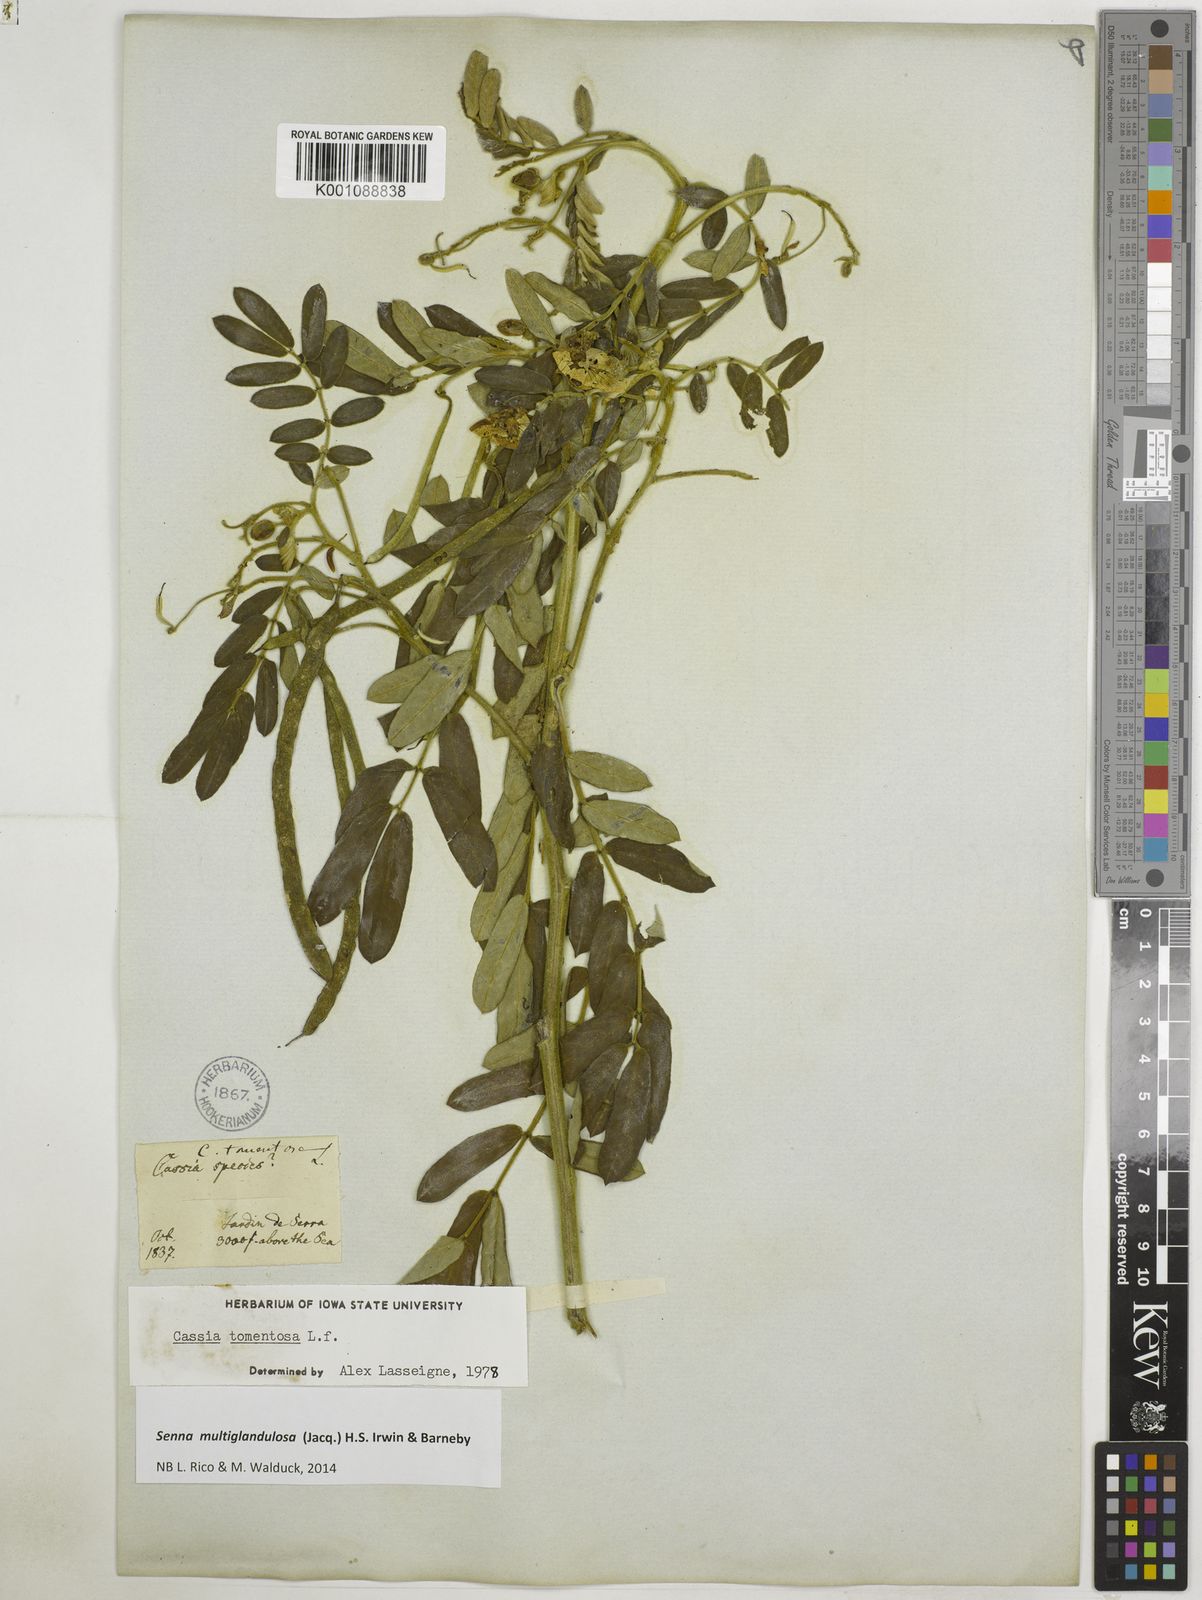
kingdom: Plantae
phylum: Tracheophyta
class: Magnoliopsida
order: Fabales
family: Fabaceae
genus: Senna
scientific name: Senna multiglandulosa
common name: Glandular senna
